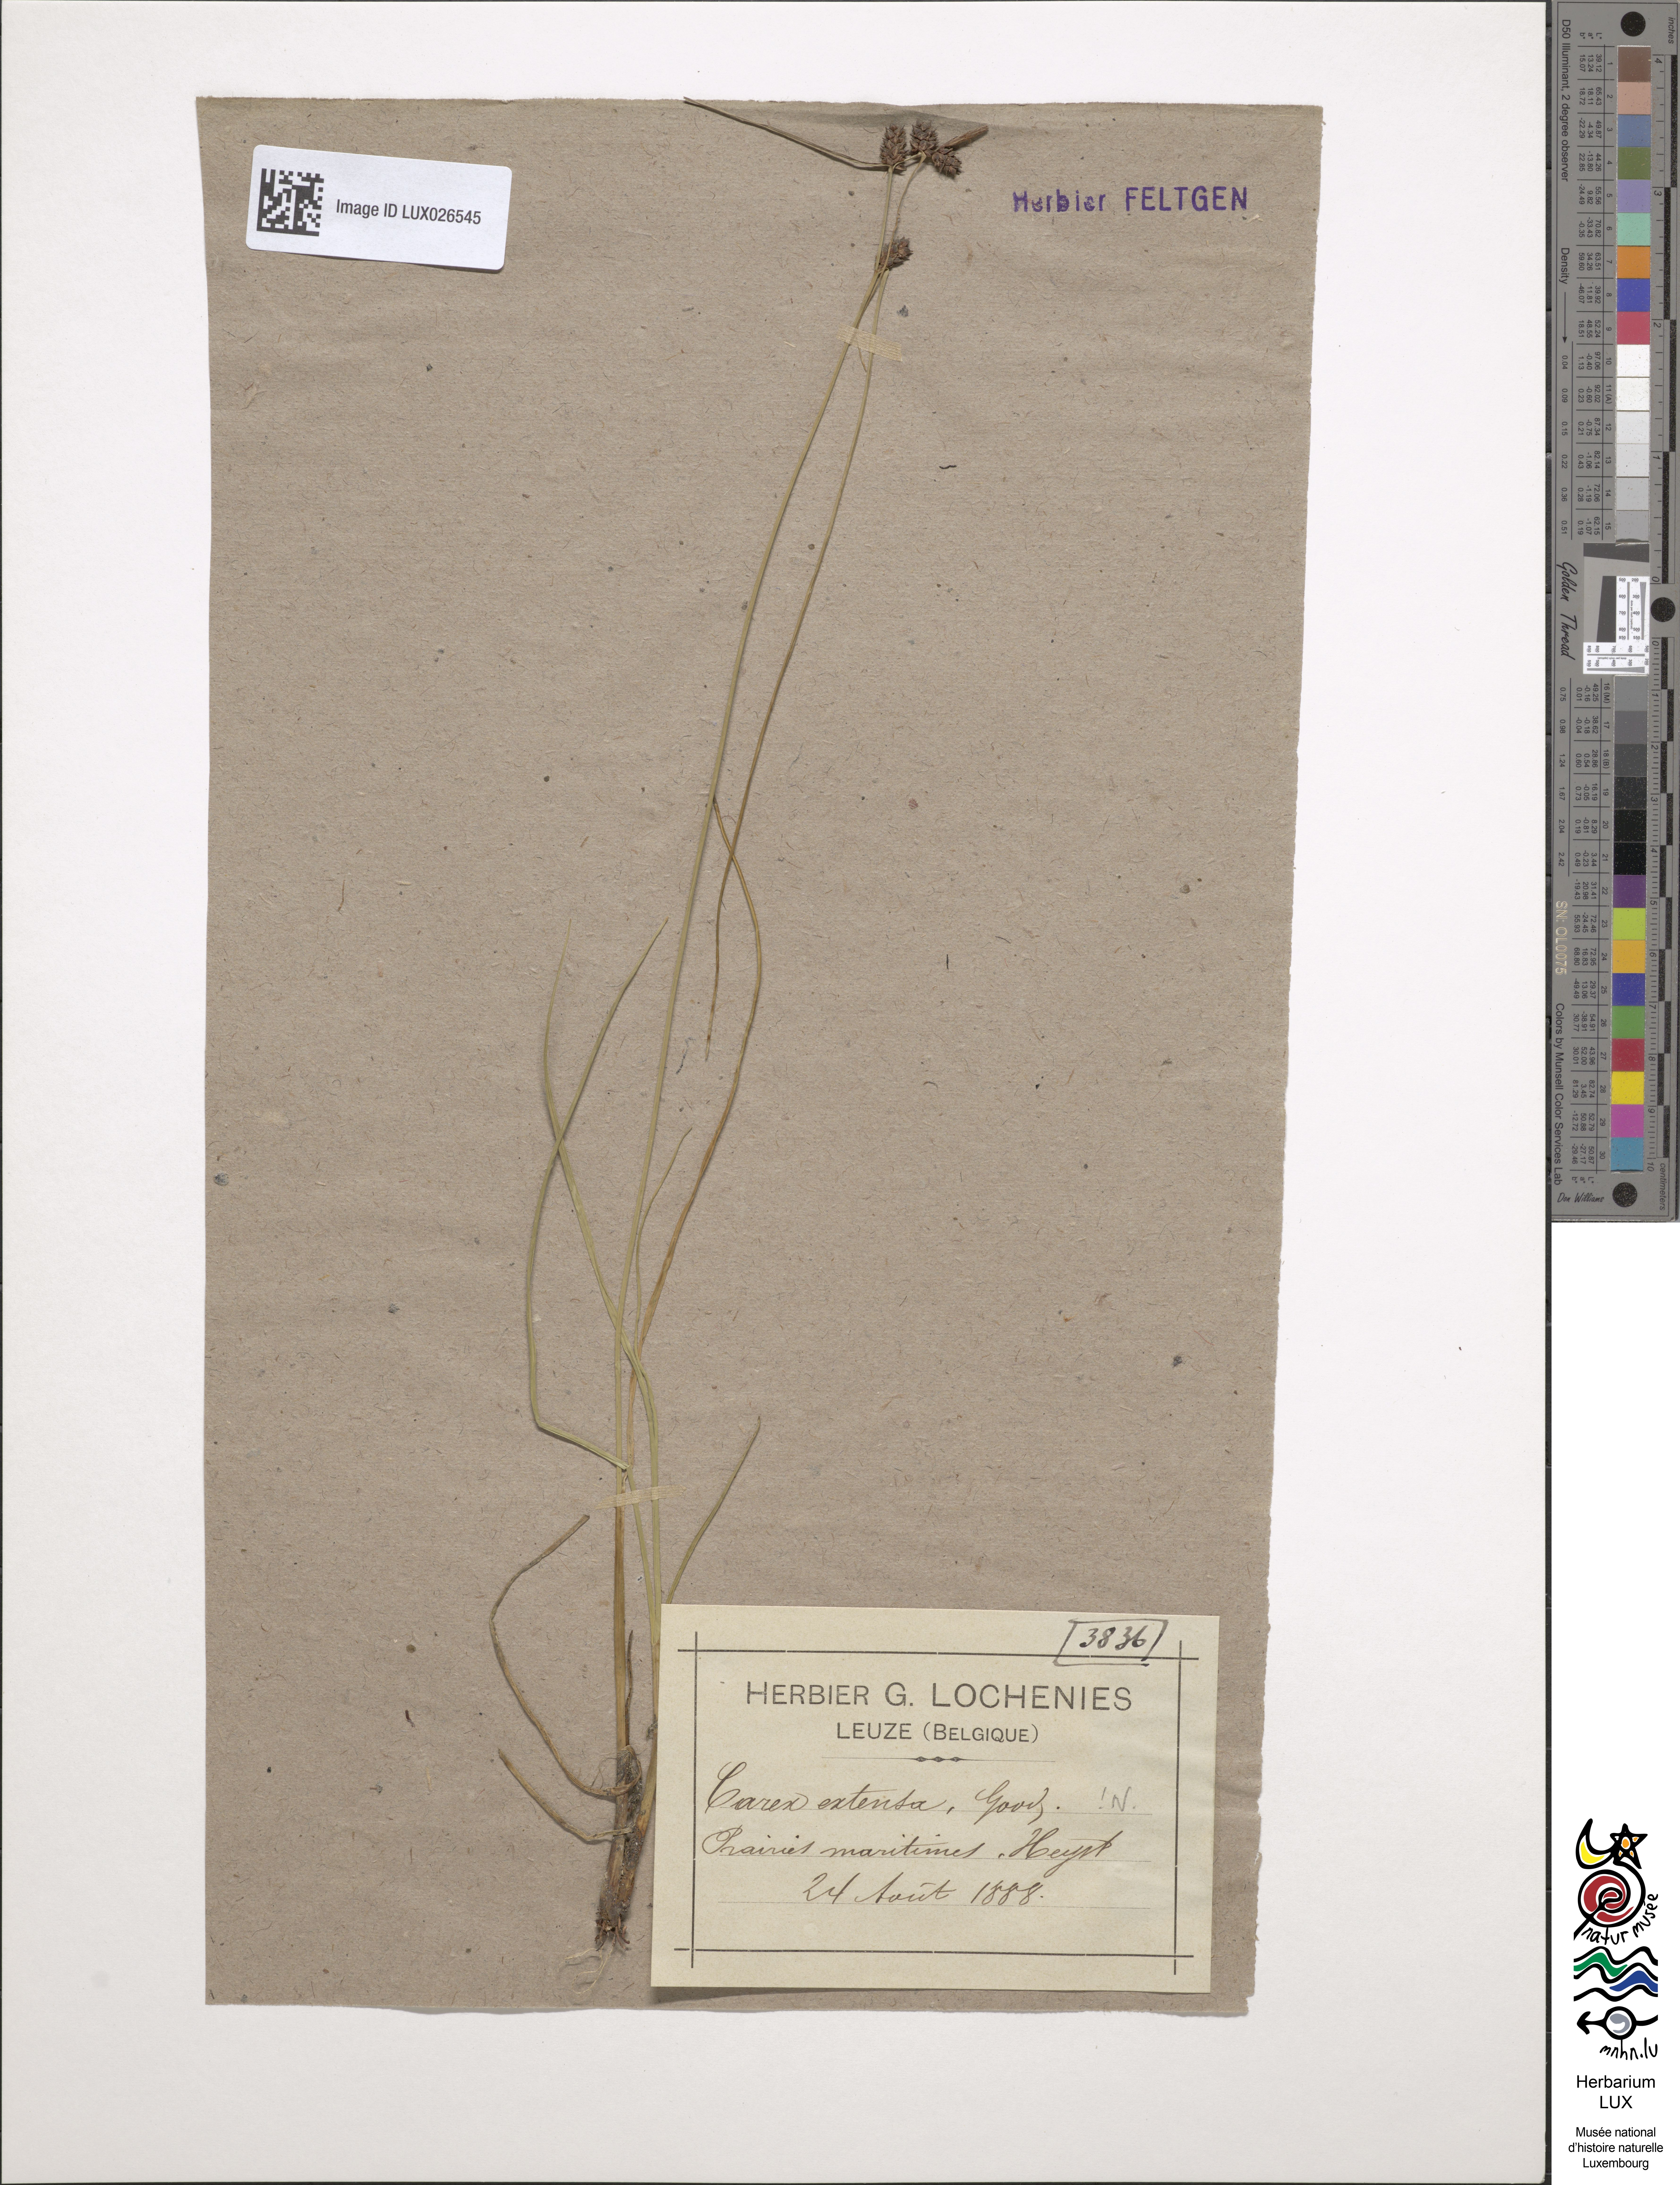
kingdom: Plantae
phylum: Tracheophyta
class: Liliopsida
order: Poales
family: Cyperaceae
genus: Carex
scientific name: Carex extensa
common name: Long-bracted sedge
